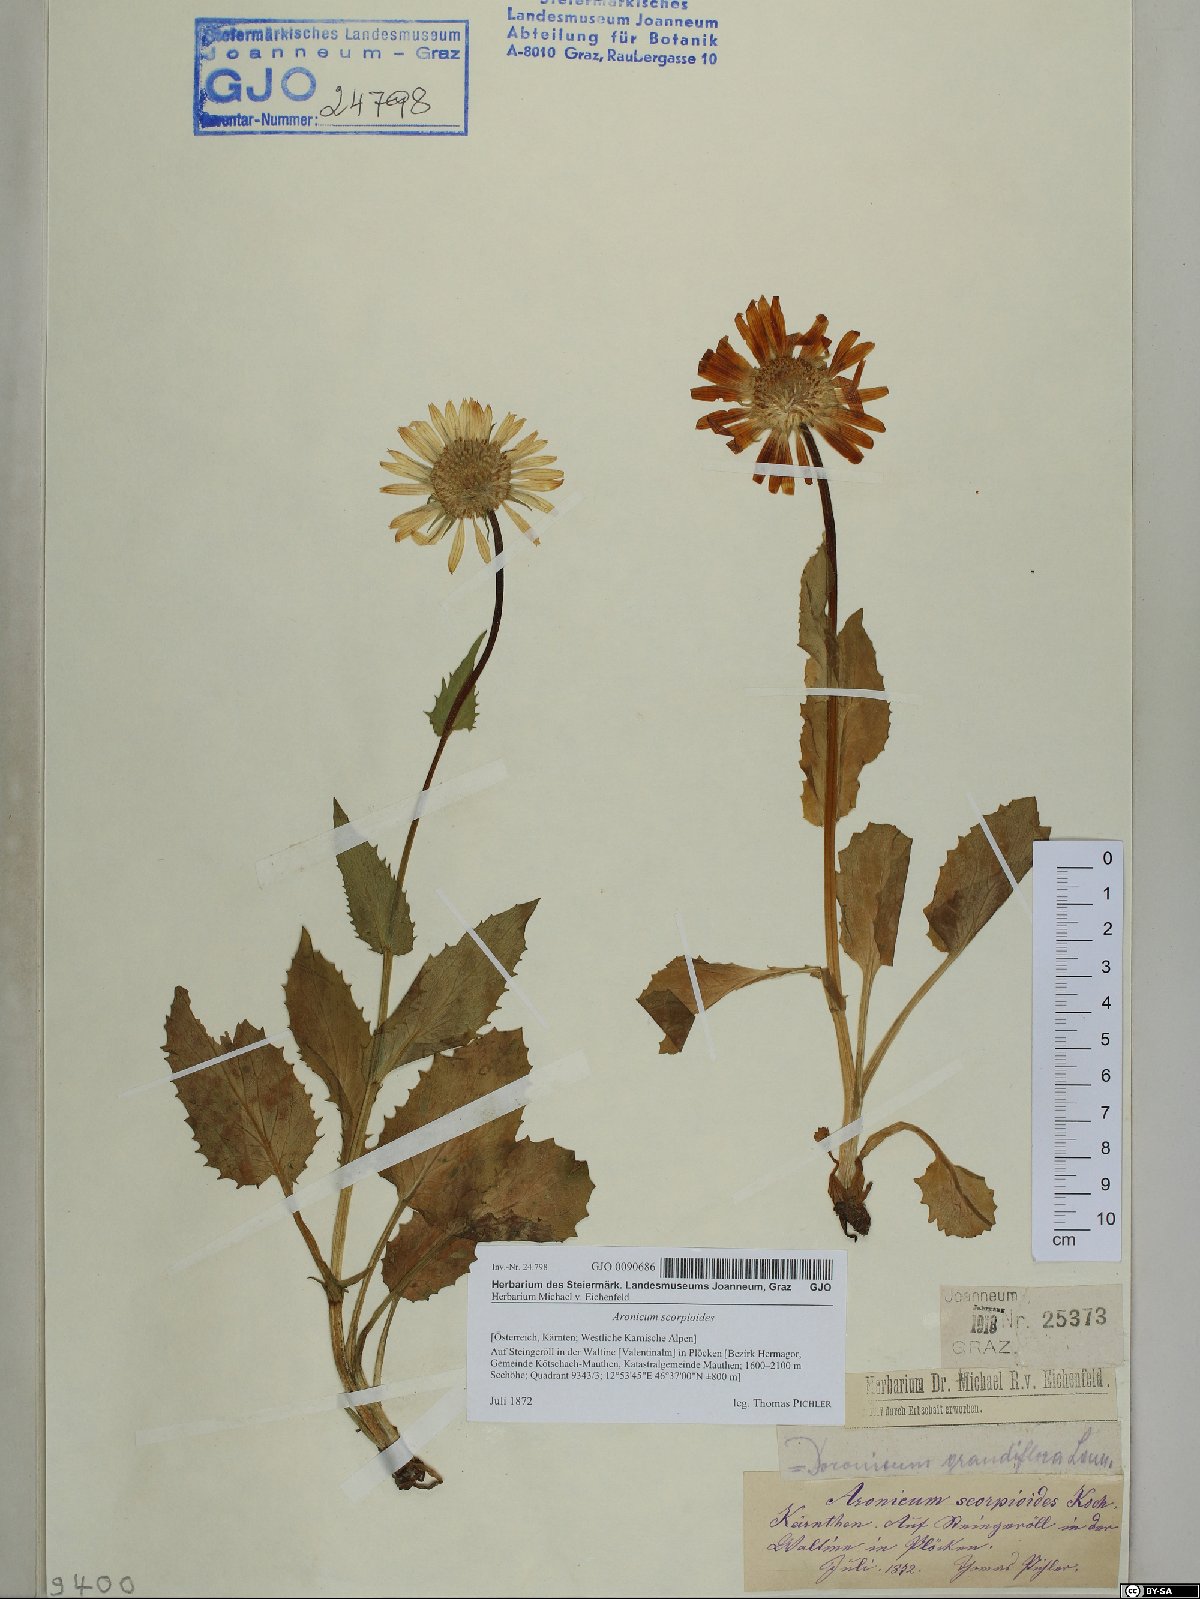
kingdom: Plantae
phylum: Tracheophyta
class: Magnoliopsida
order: Asterales
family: Asteraceae
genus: Doronicum
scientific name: Doronicum grandiflorum
